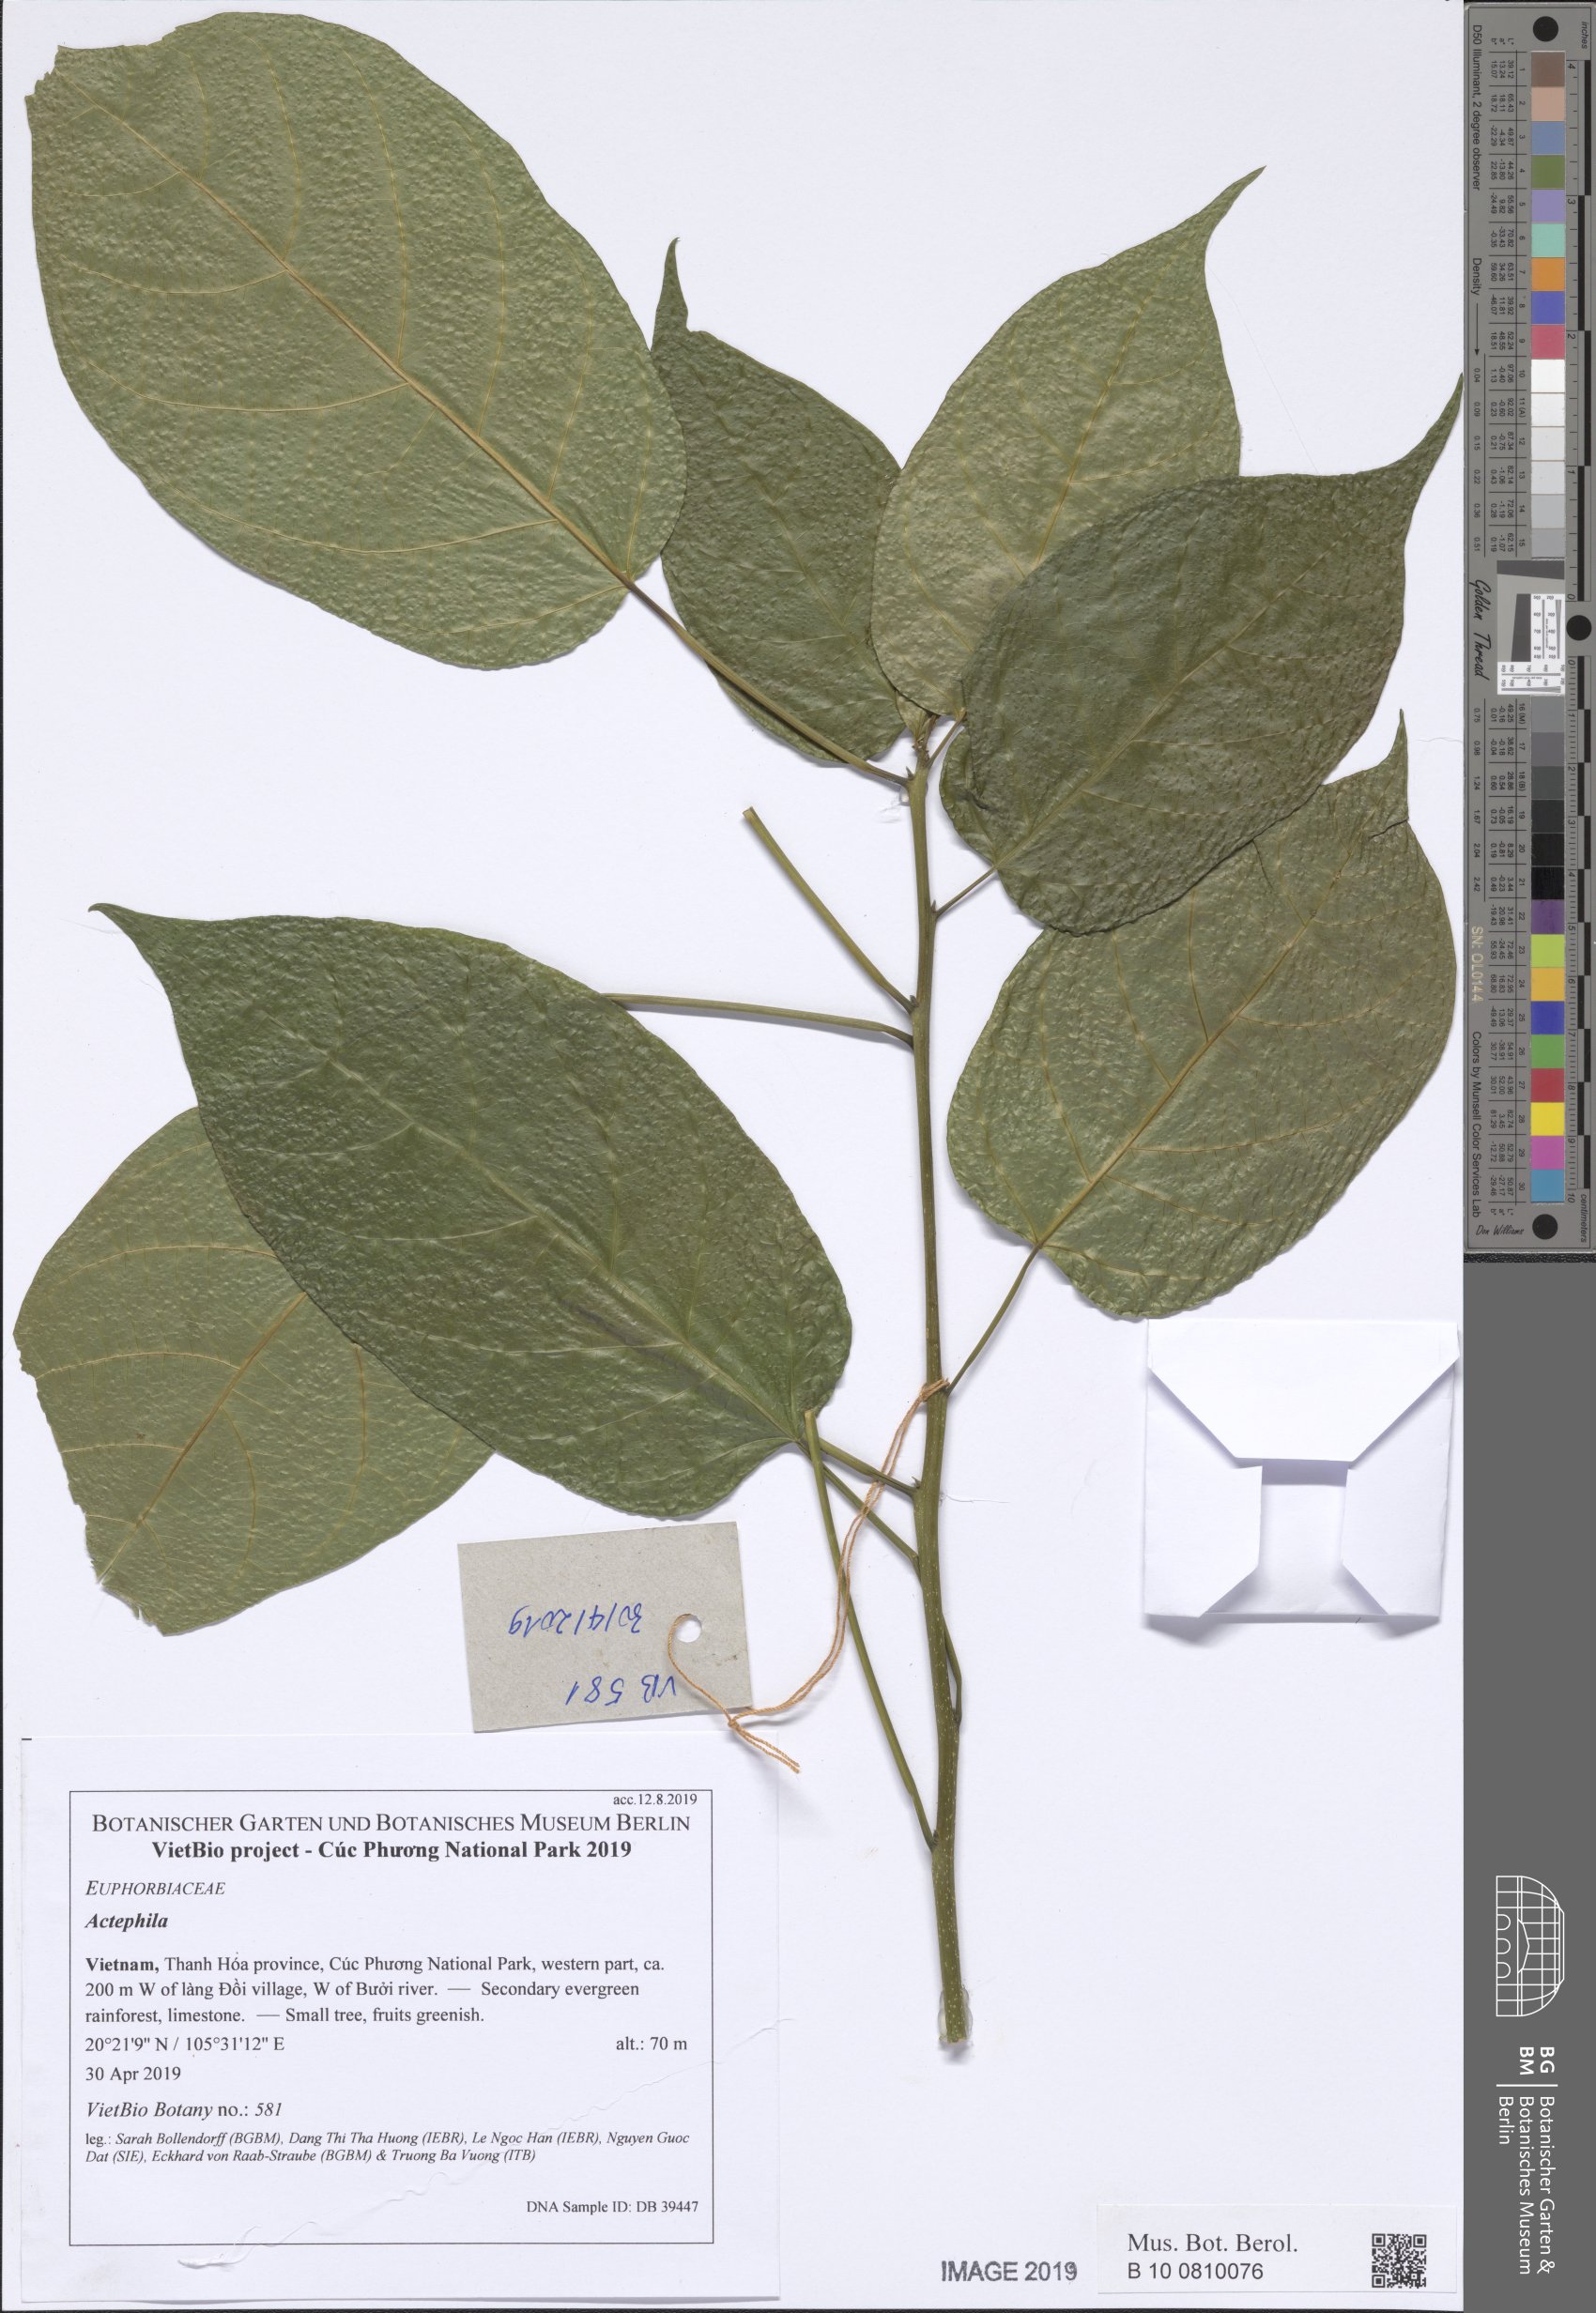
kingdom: Plantae
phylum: Tracheophyta
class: Magnoliopsida
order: Malpighiales
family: Euphorbiaceae
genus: Strophioblachia
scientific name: Strophioblachia fimbricalyx
